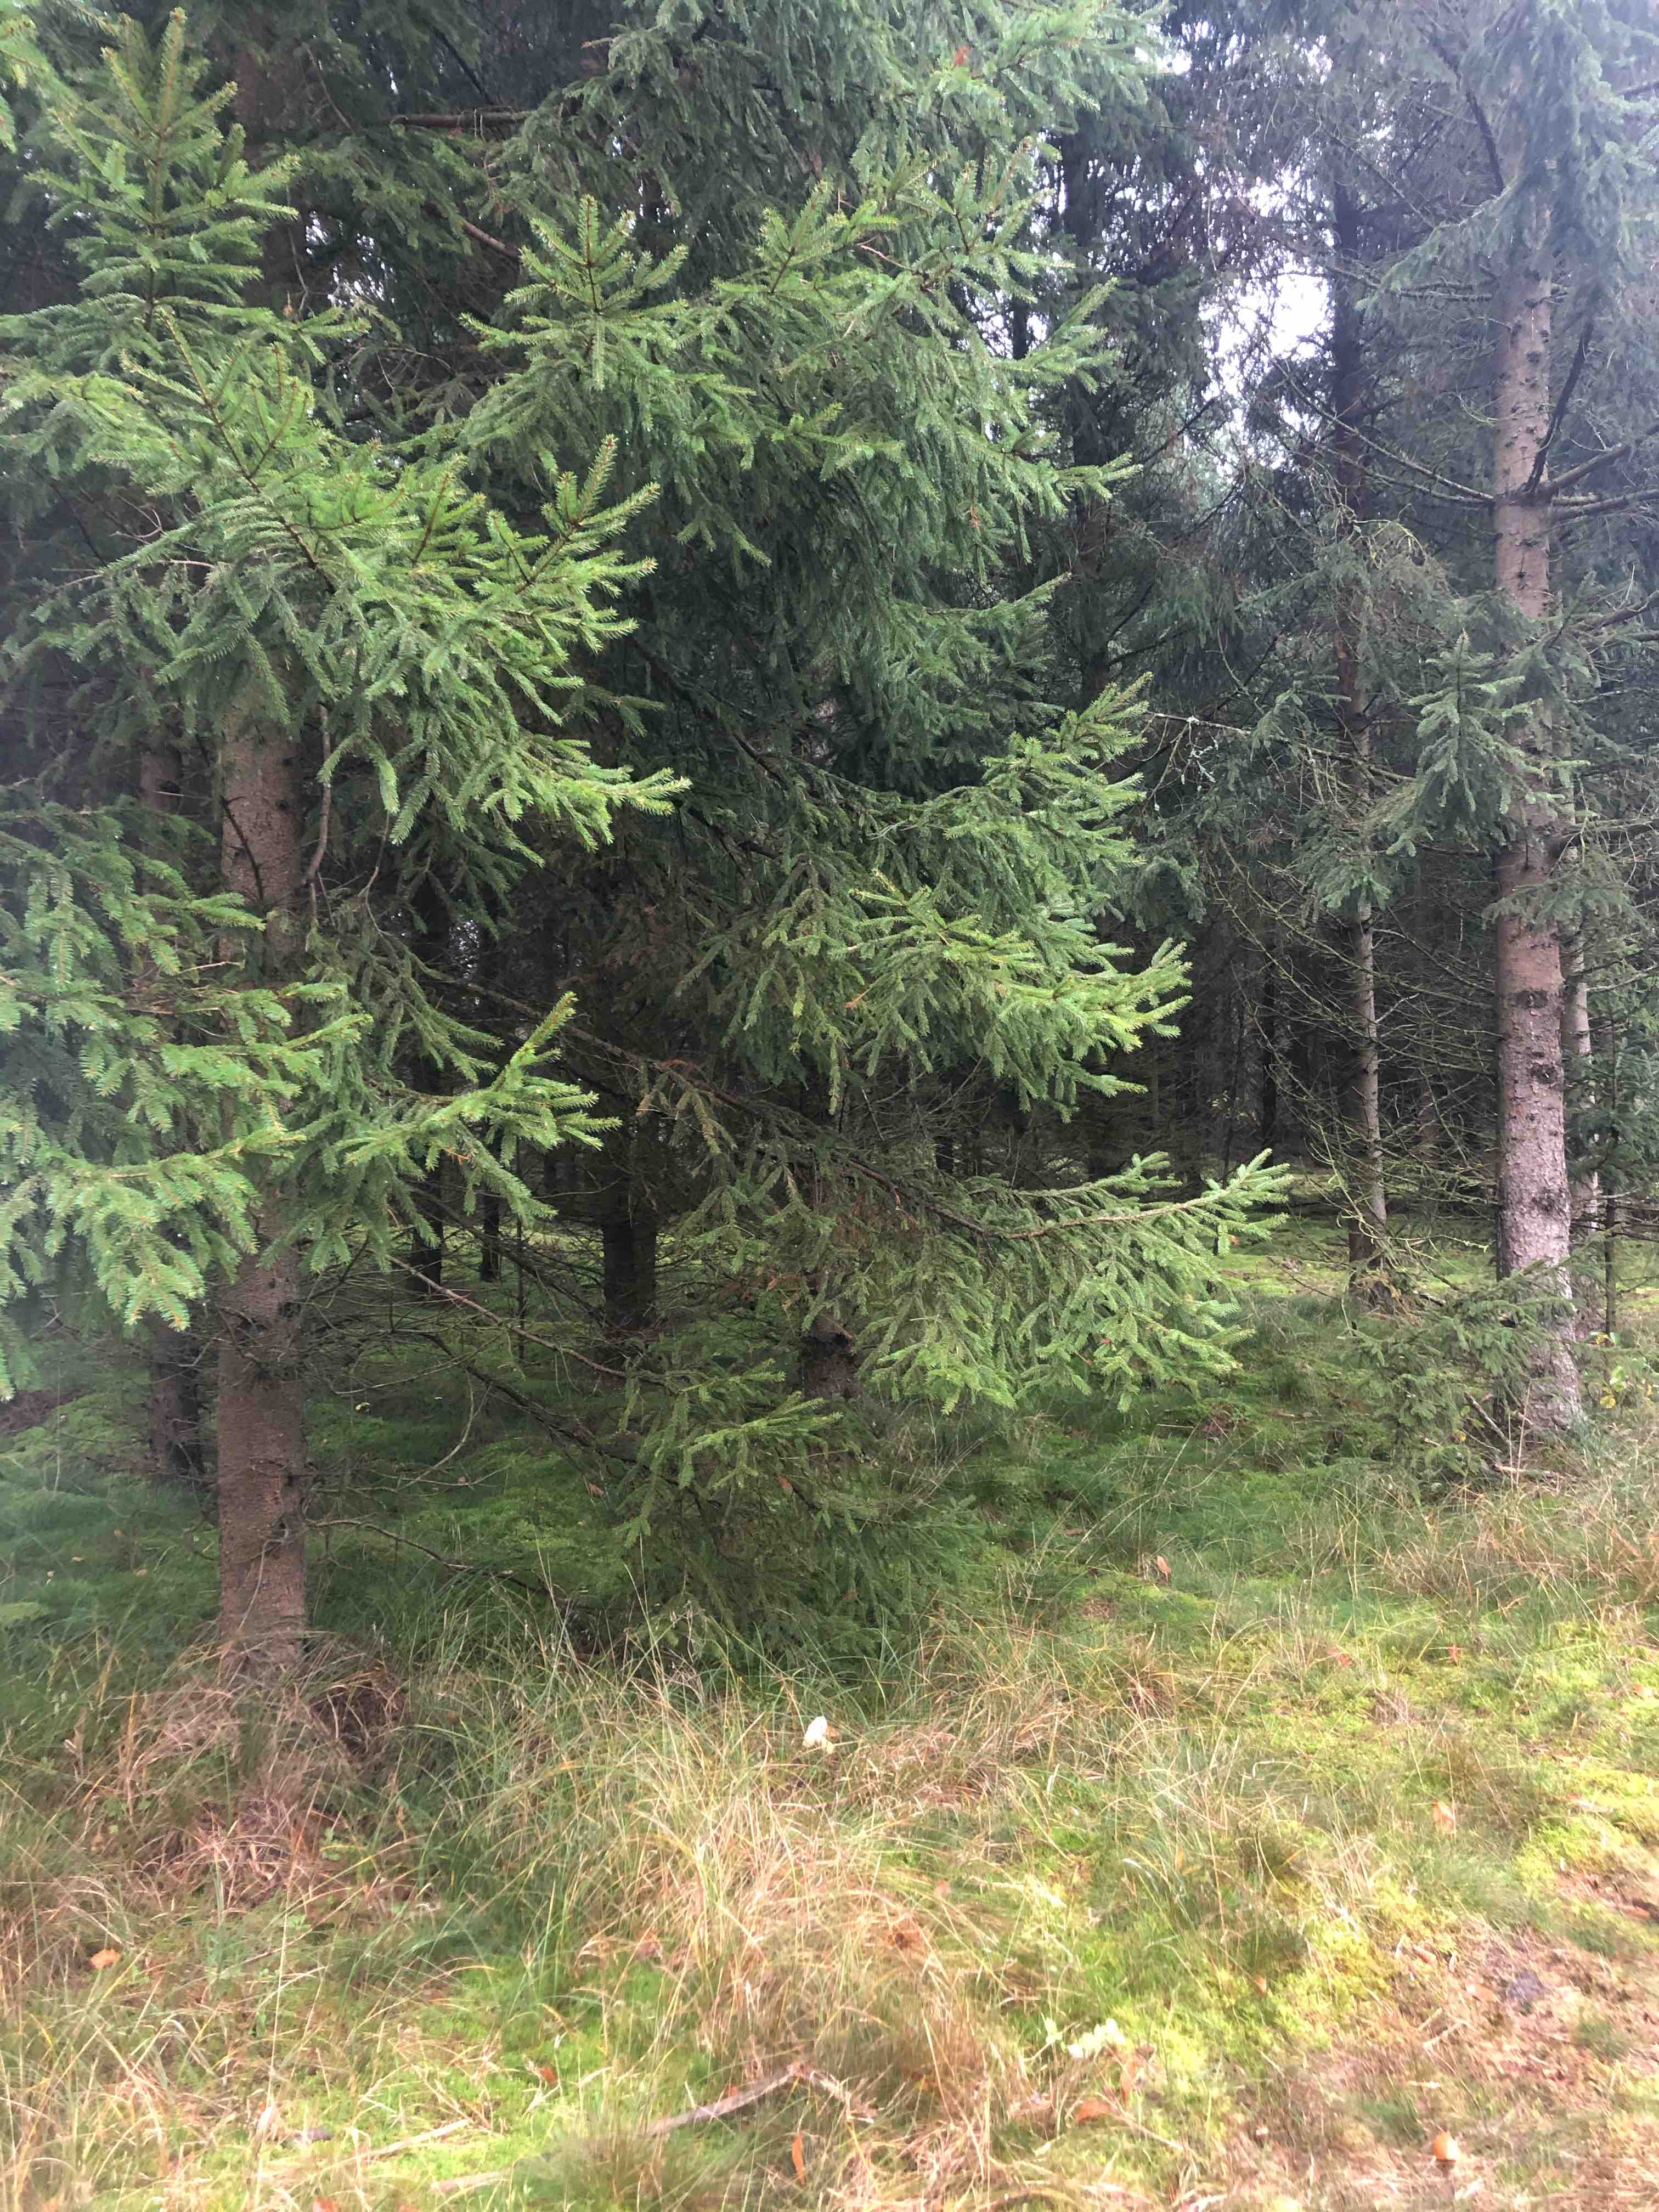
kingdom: Fungi
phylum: Basidiomycota
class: Agaricomycetes
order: Boletales
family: Boletaceae
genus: Imleria
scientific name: Imleria badia
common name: brunstokket rørhat
